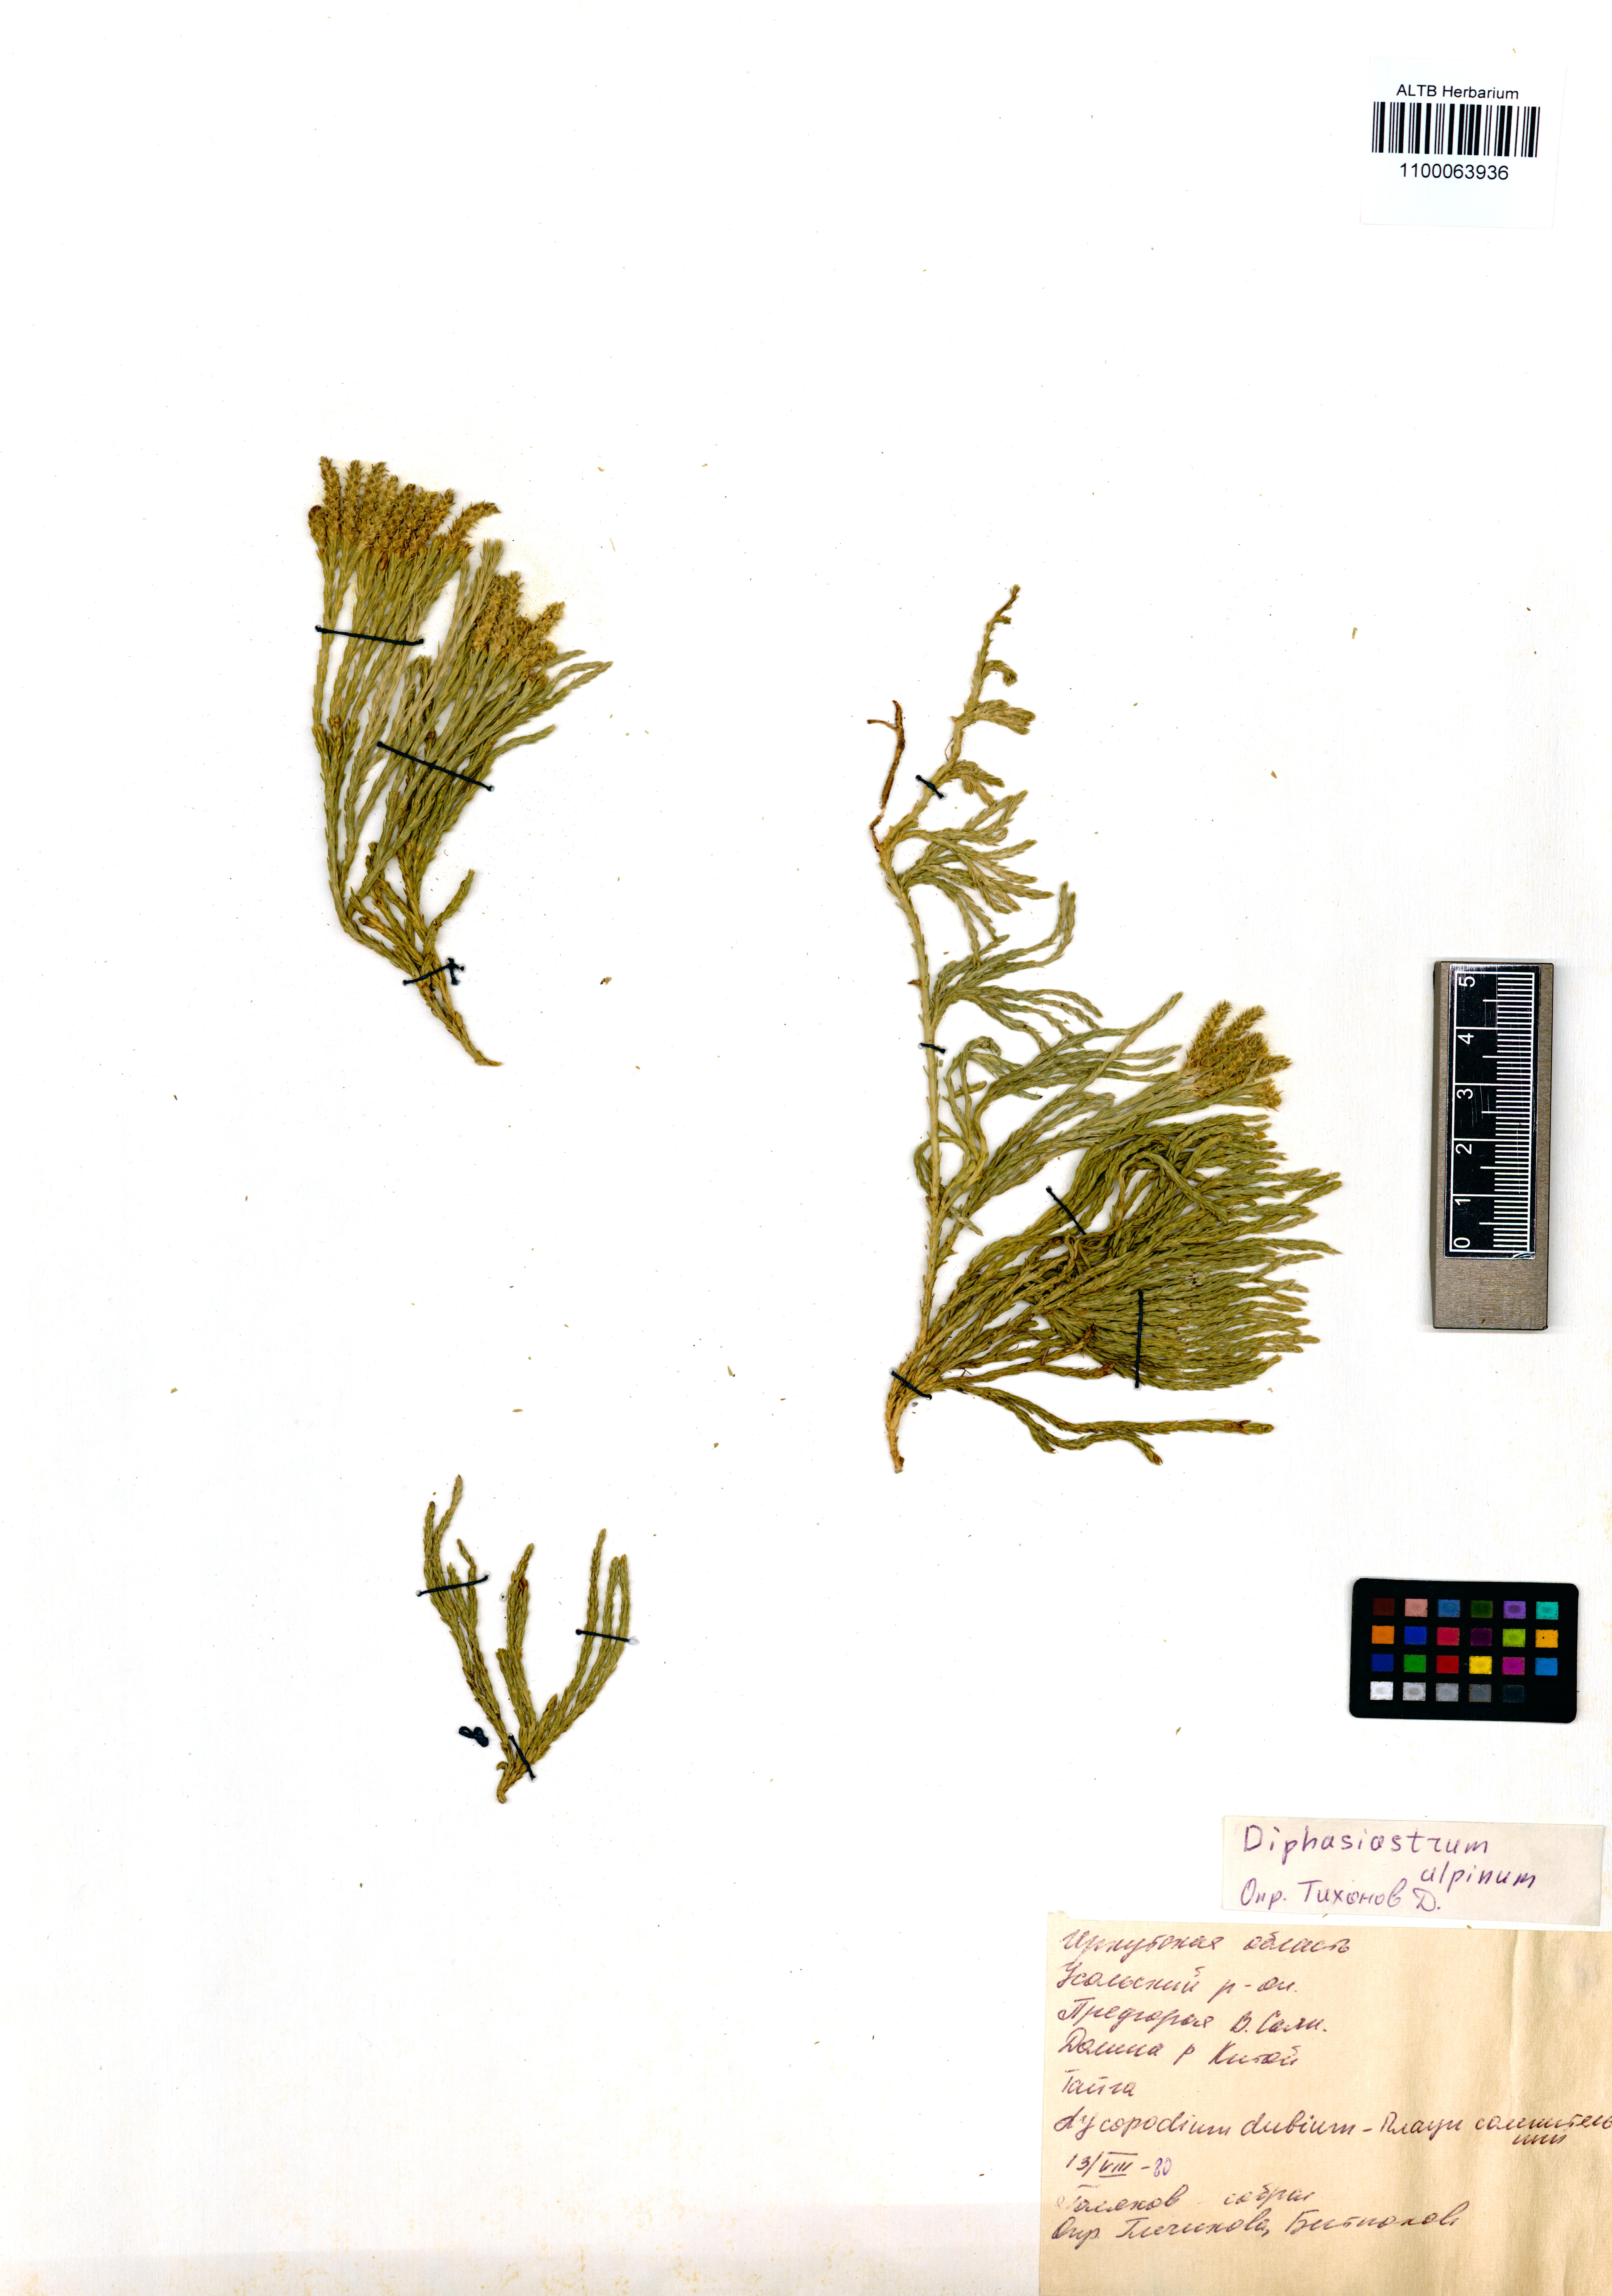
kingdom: Plantae
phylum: Tracheophyta
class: Lycopodiopsida
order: Lycopodiales
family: Lycopodiaceae
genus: Diphasiastrum
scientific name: Diphasiastrum alpinum
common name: Alpine clubmoss
